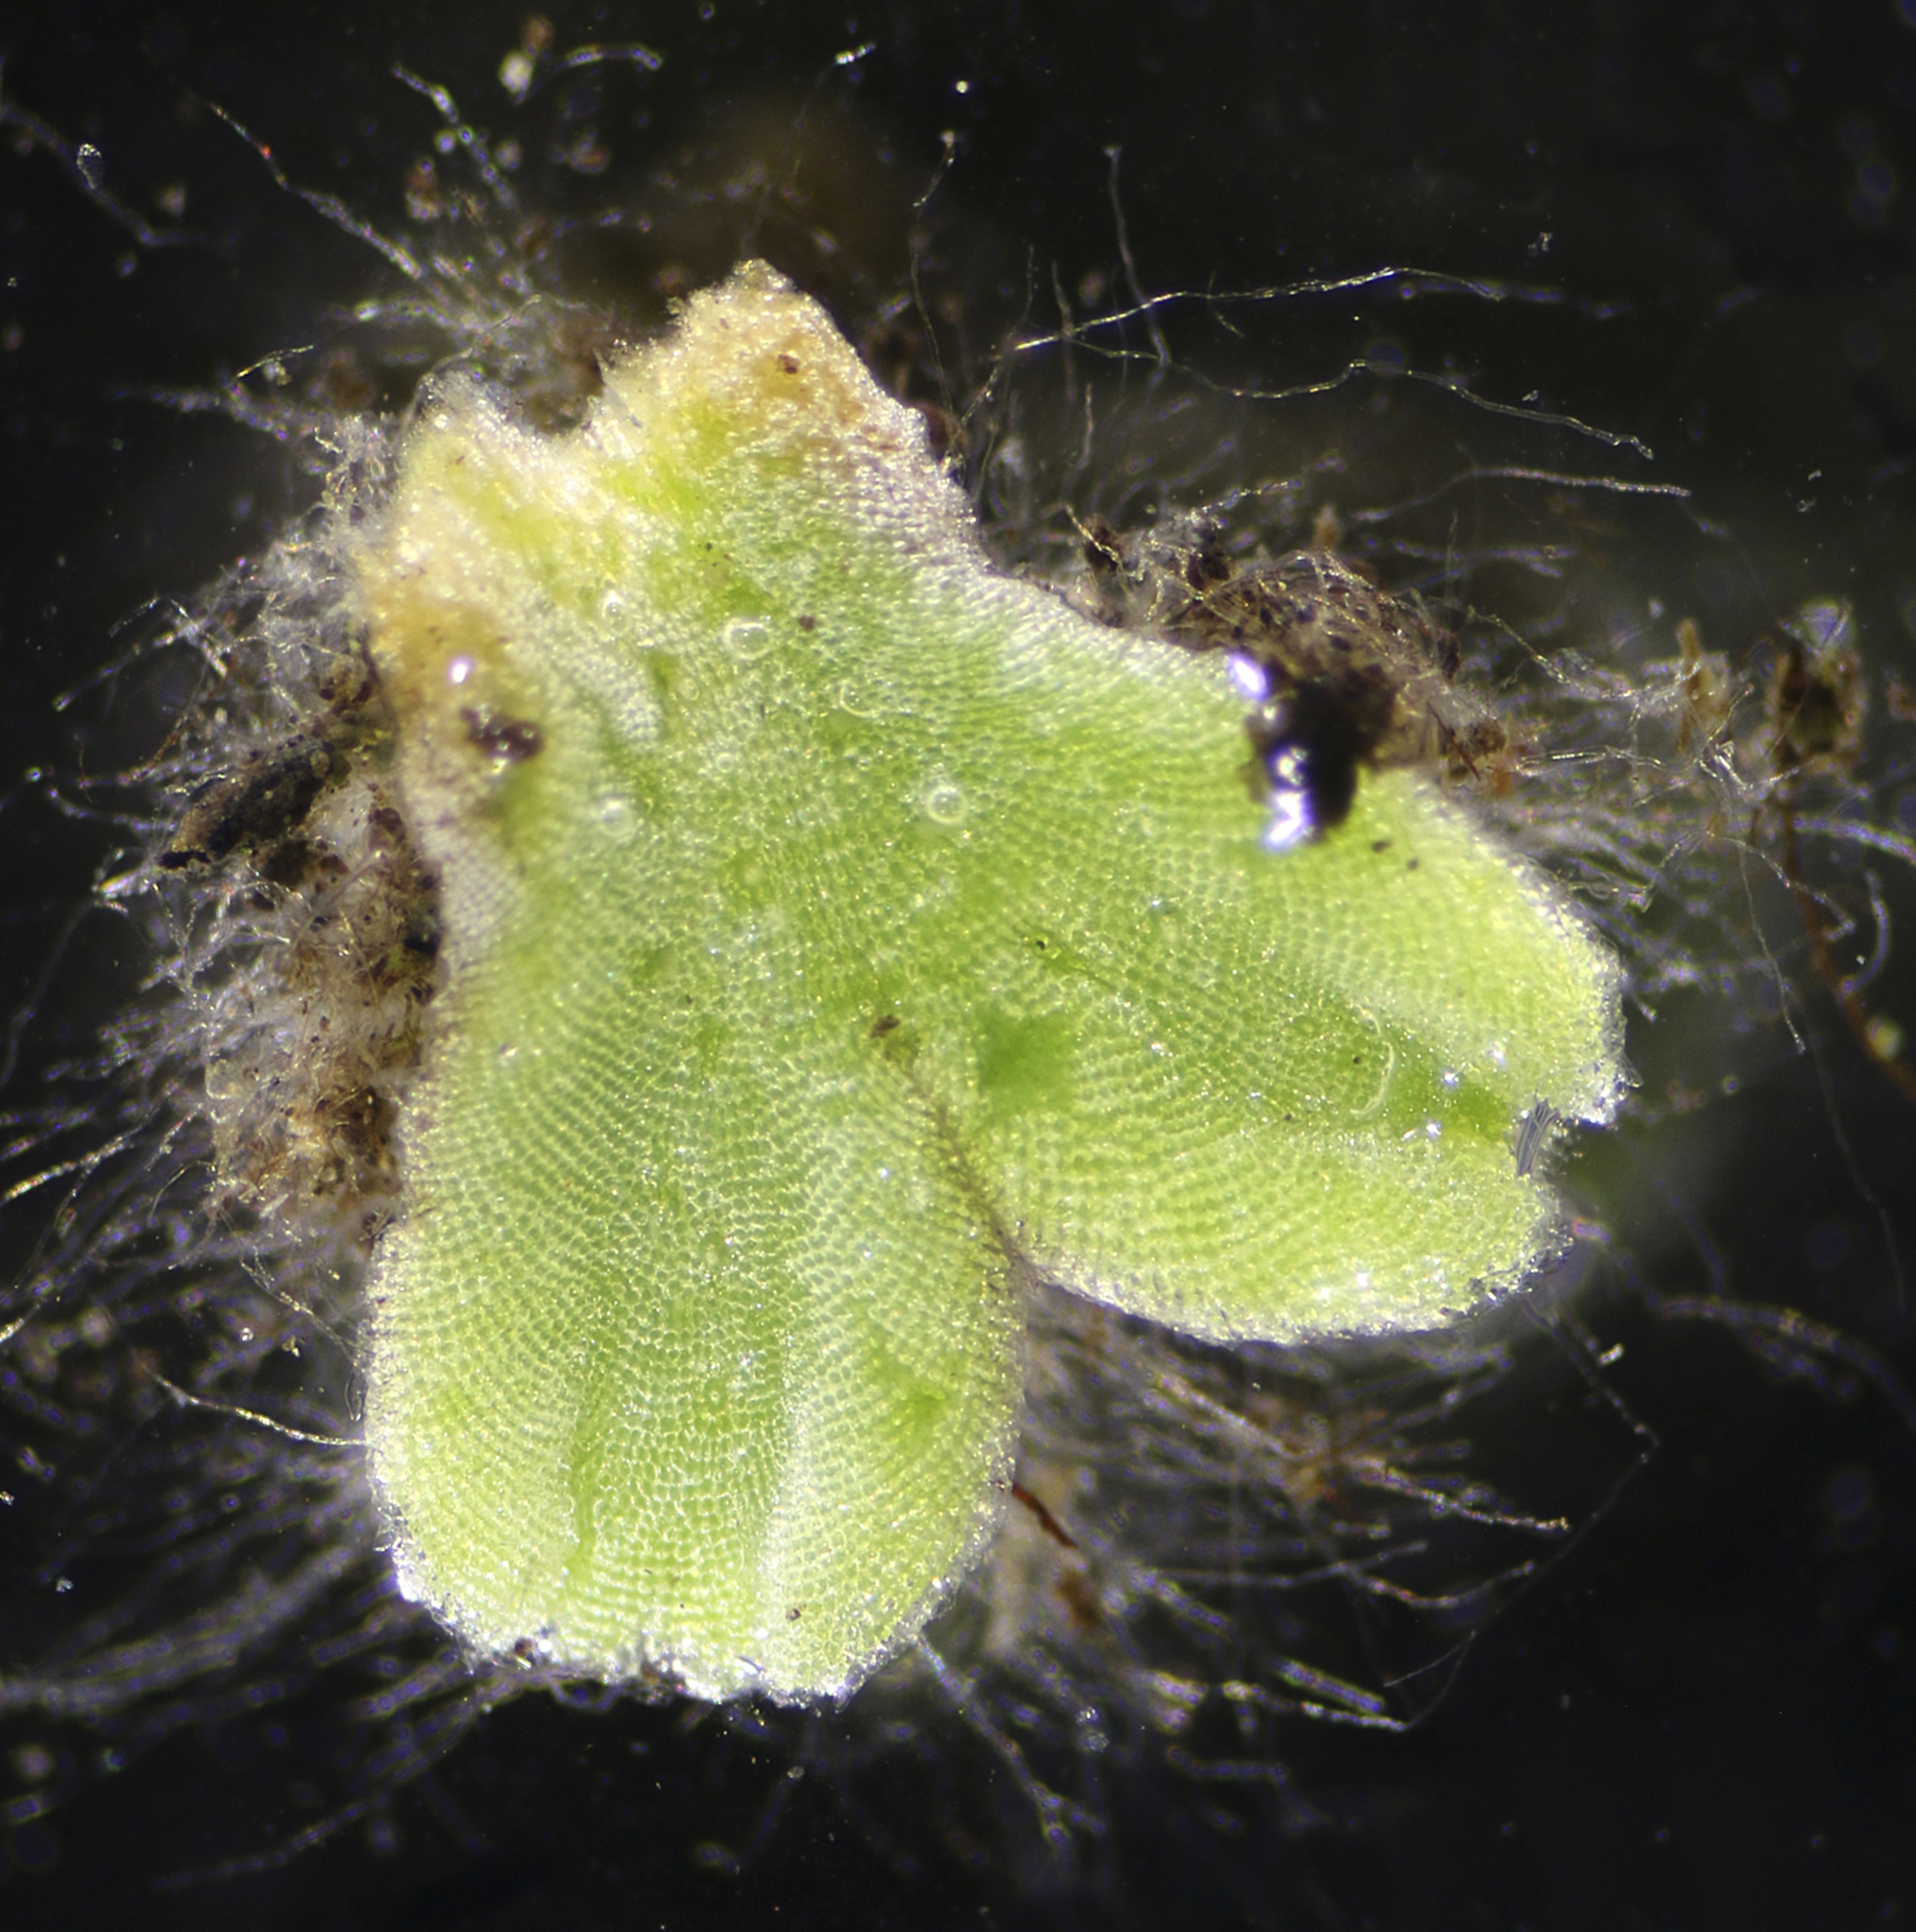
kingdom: Plantae
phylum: Marchantiophyta
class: Marchantiopsida
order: Marchantiales
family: Ricciaceae
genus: Riccia
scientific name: Riccia beyrichiana
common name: Stor stjerneløv
